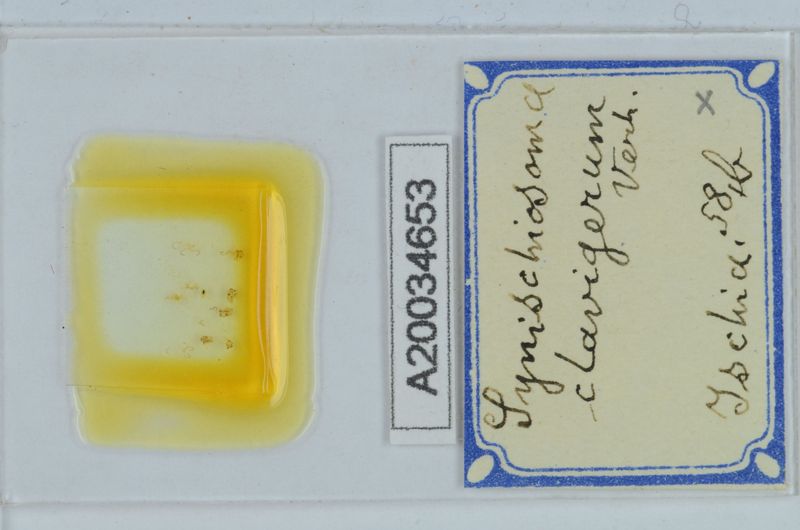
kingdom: Animalia
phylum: Arthropoda
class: Diplopoda
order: Chordeumatida
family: Craspedosomatidae
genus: Synischiosoma
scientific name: Synischiosoma
